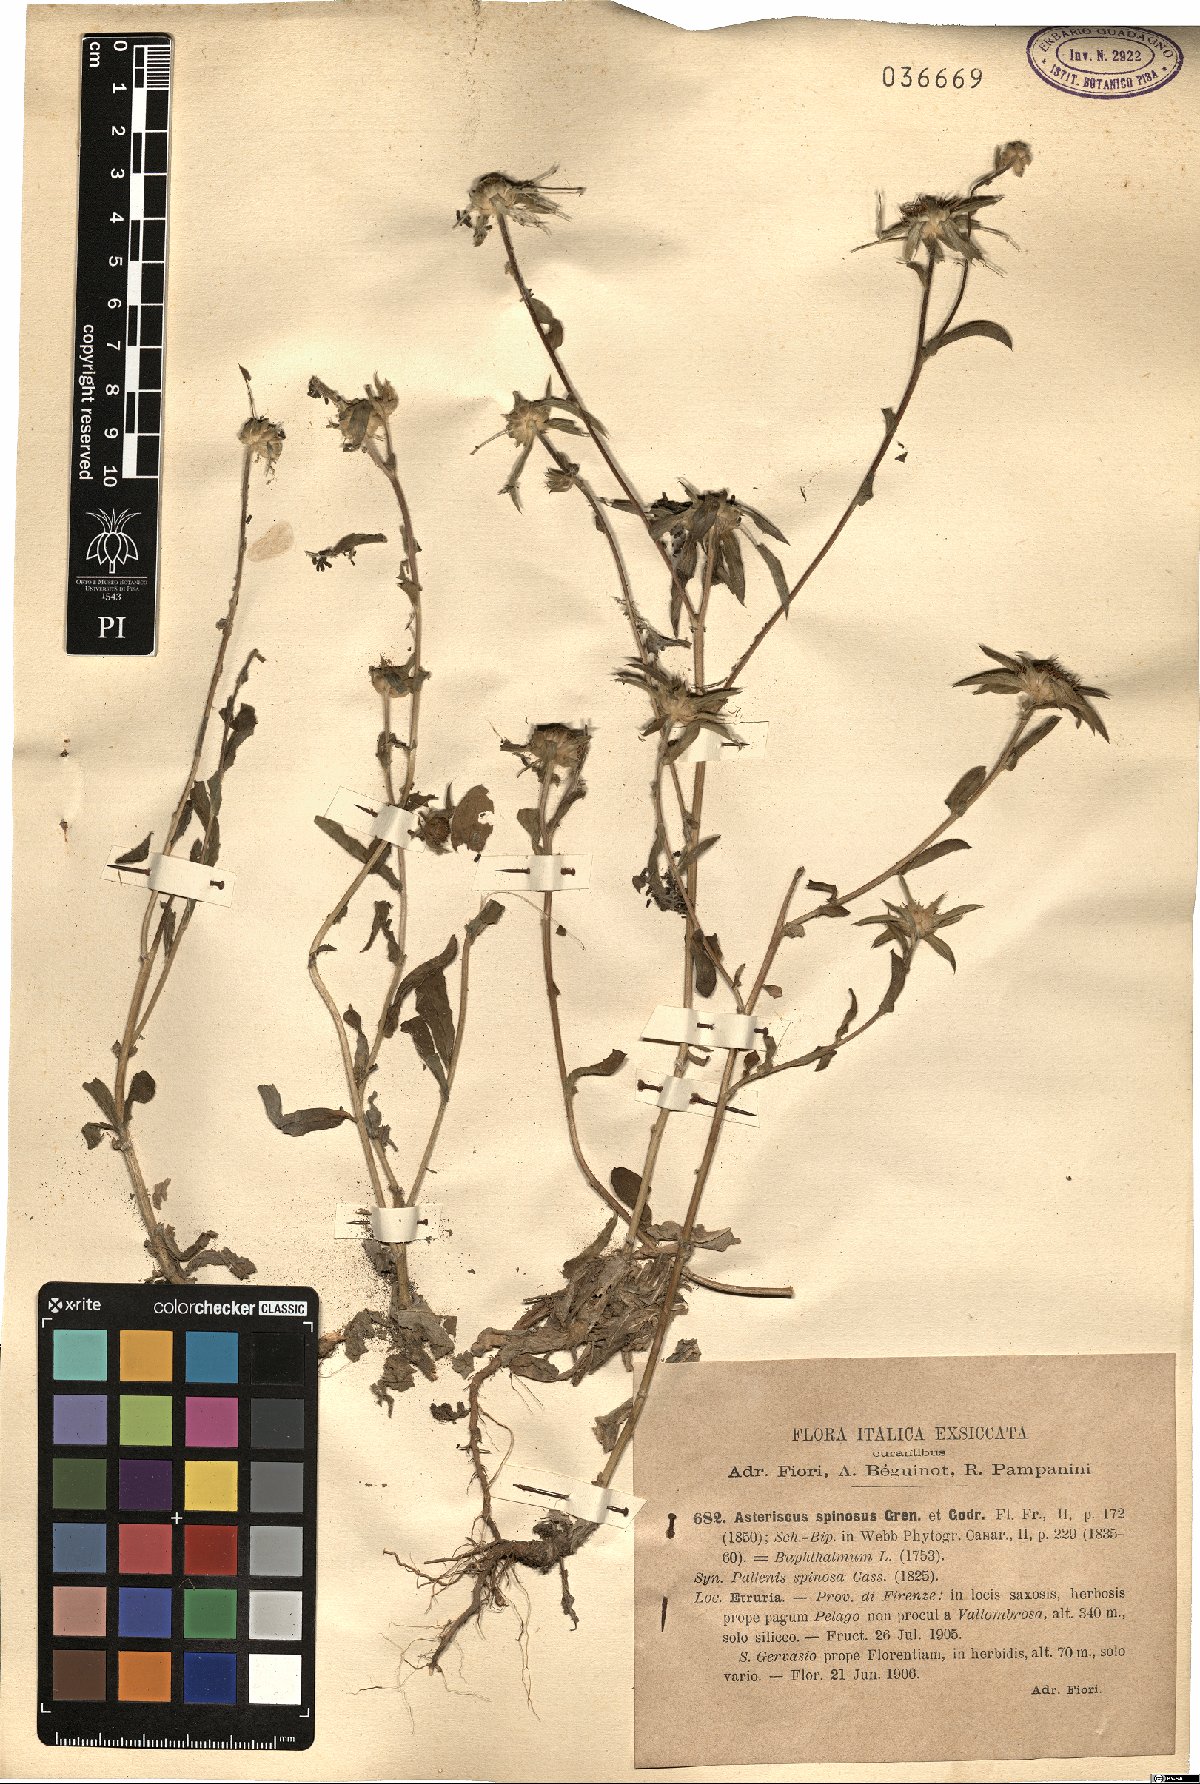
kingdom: Plantae
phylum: Tracheophyta
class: Magnoliopsida
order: Asterales
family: Asteraceae
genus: Pallenis
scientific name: Pallenis spinosa
